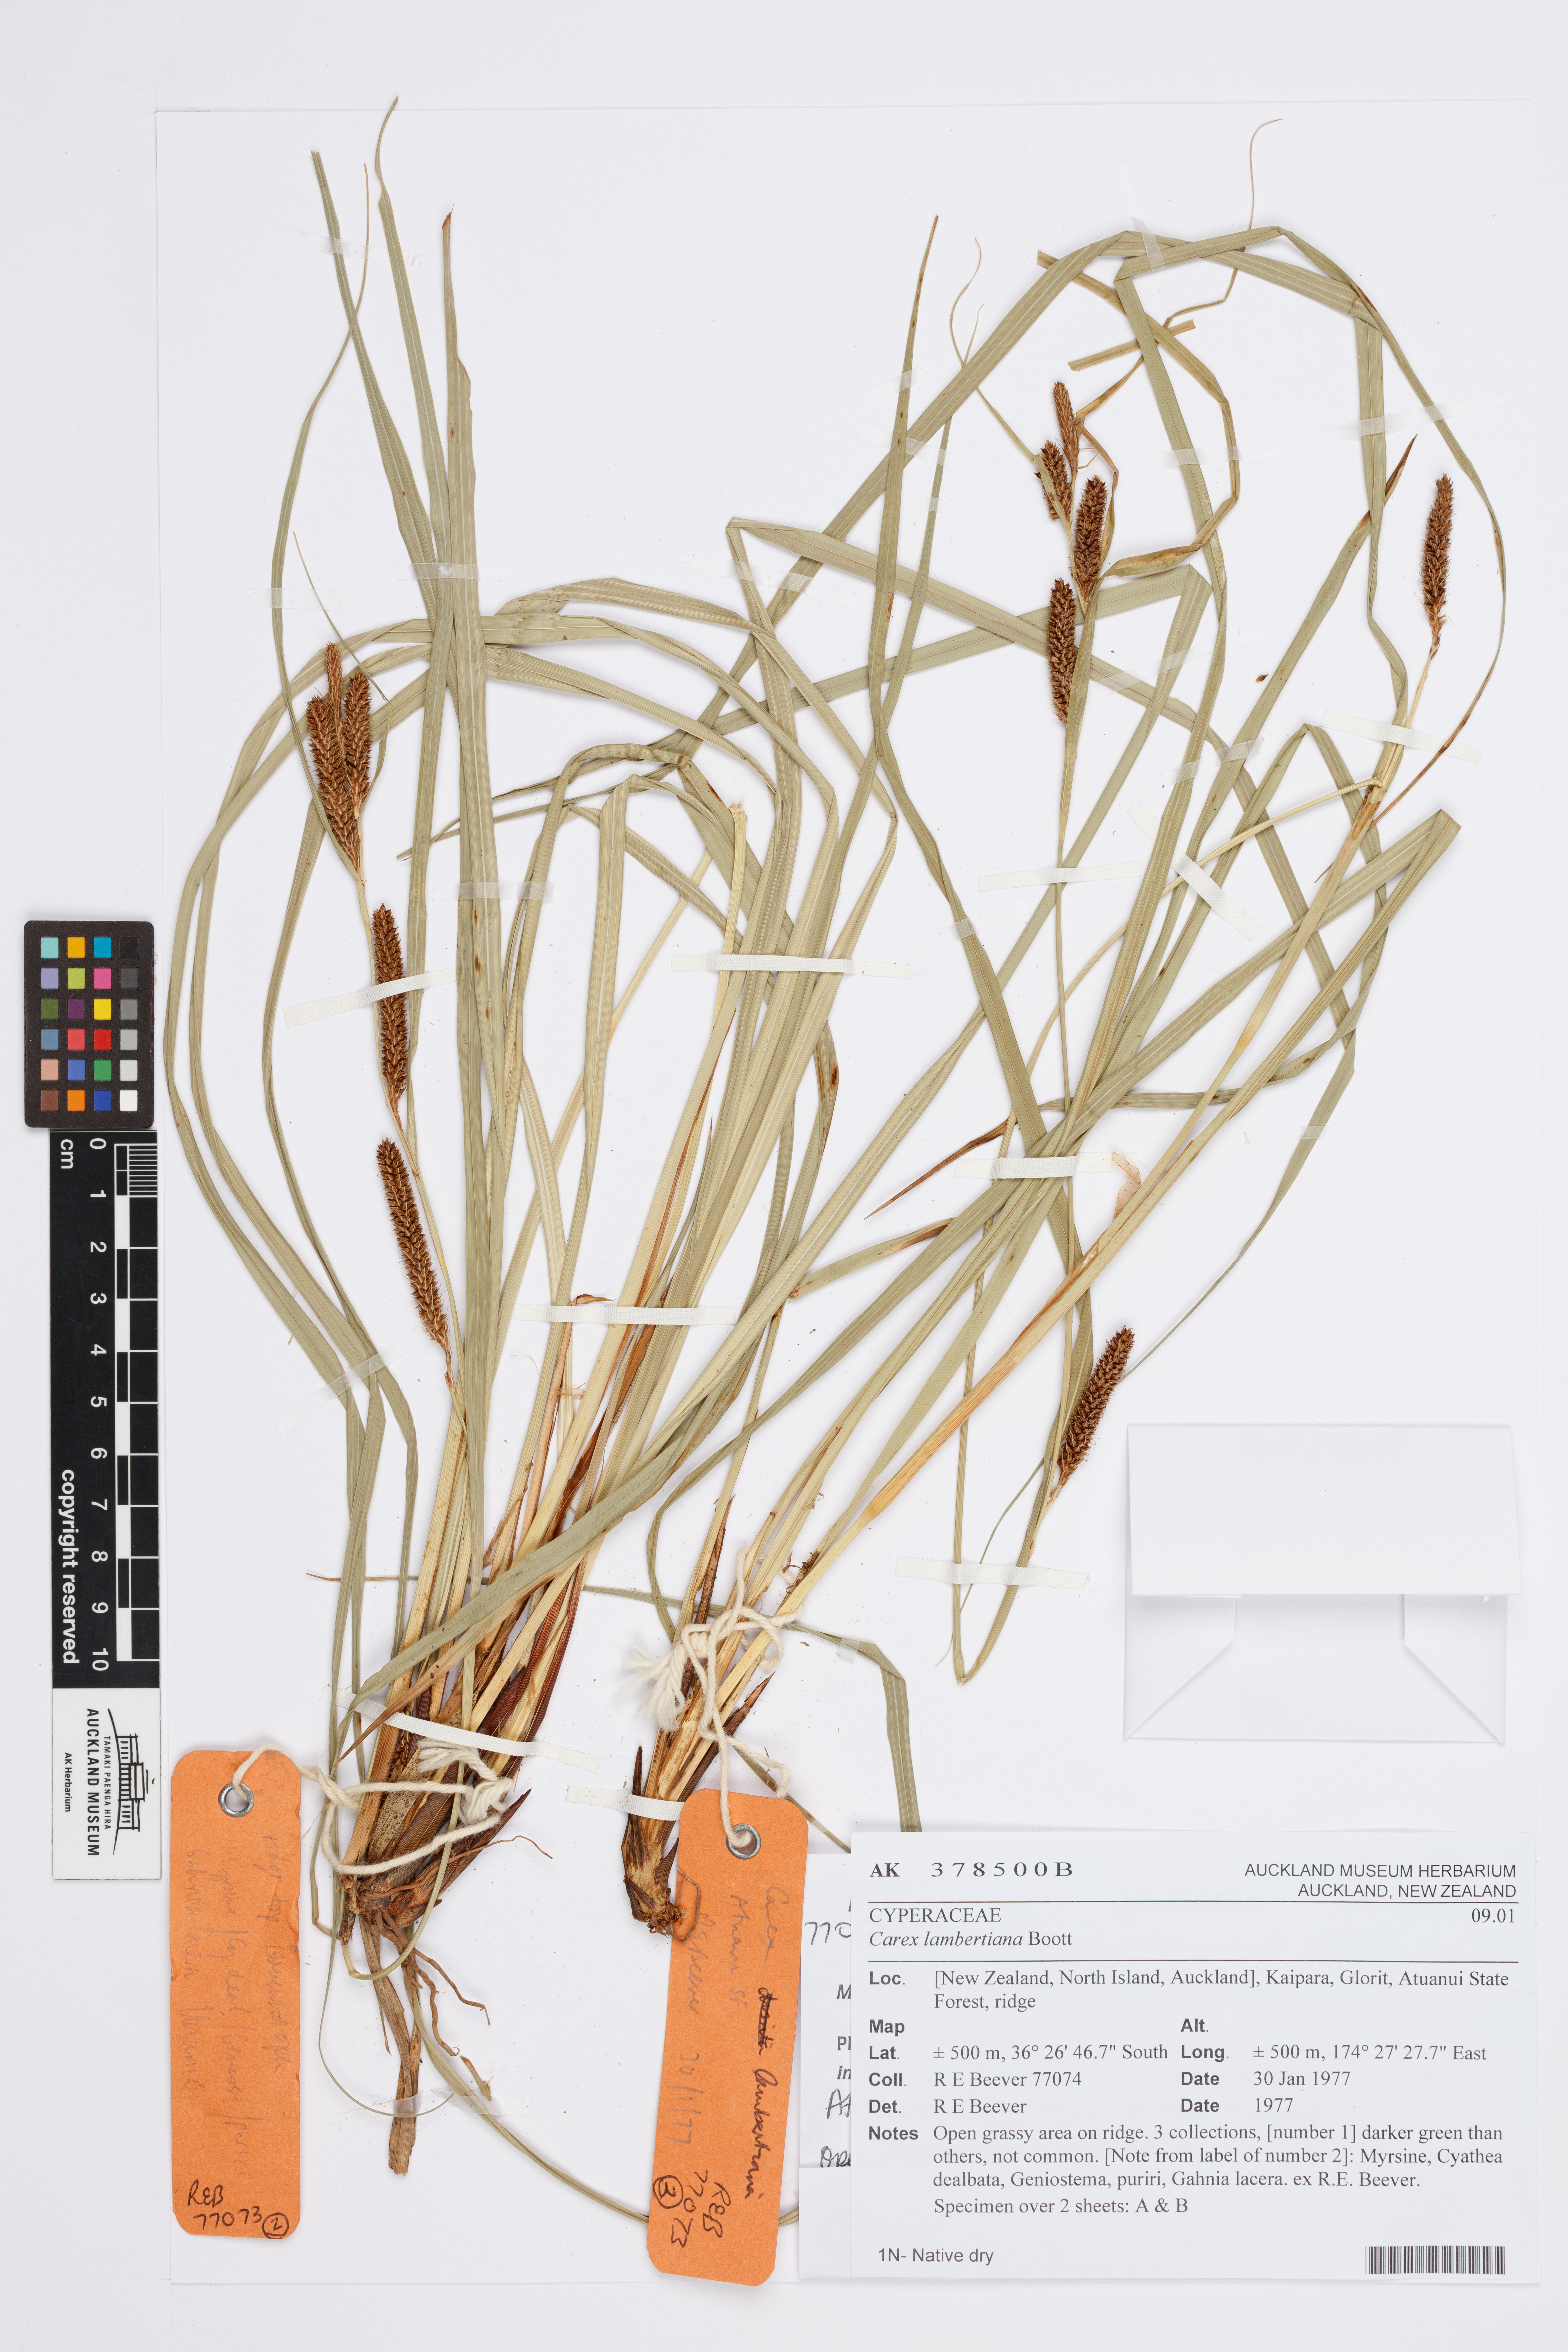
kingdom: Plantae
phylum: Tracheophyta
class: Liliopsida
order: Poales
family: Cyperaceae
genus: Carex
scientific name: Carex lambertiana
